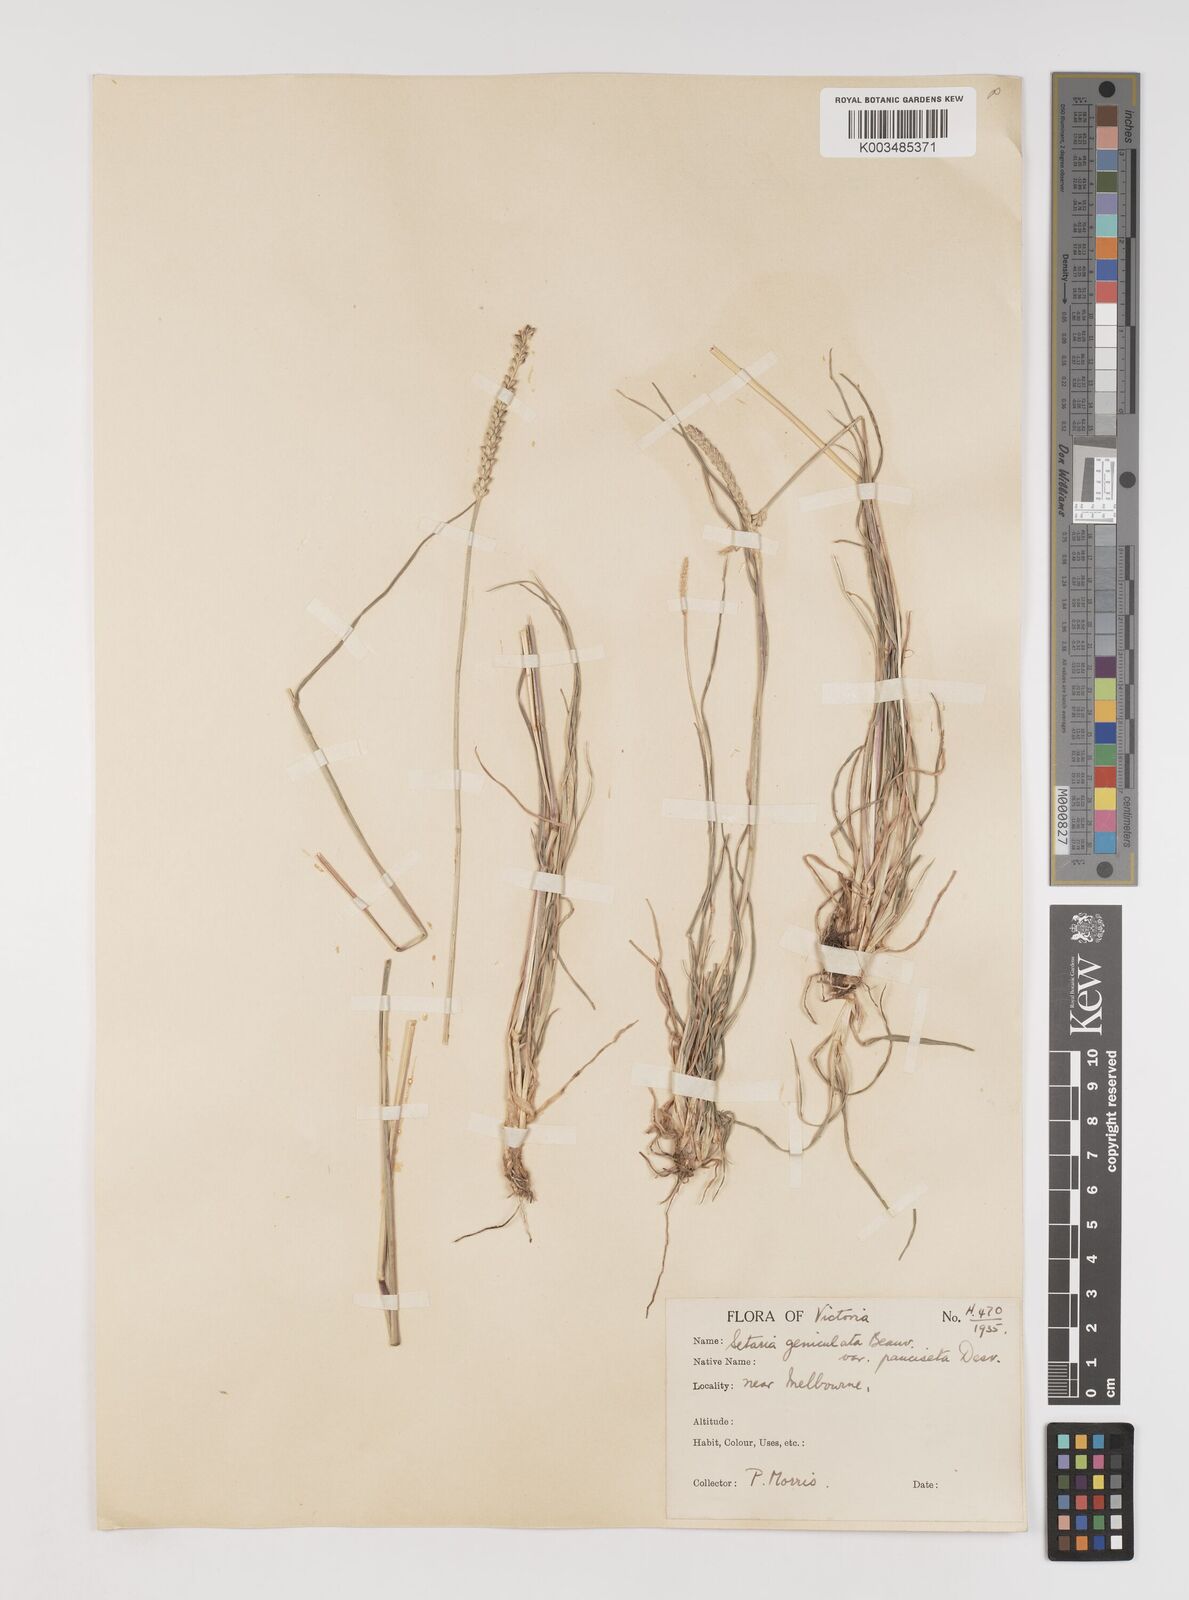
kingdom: Plantae
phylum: Tracheophyta
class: Liliopsida
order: Poales
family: Poaceae
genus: Setaria
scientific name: Setaria parviflora
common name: Knotroot bristle-grass
